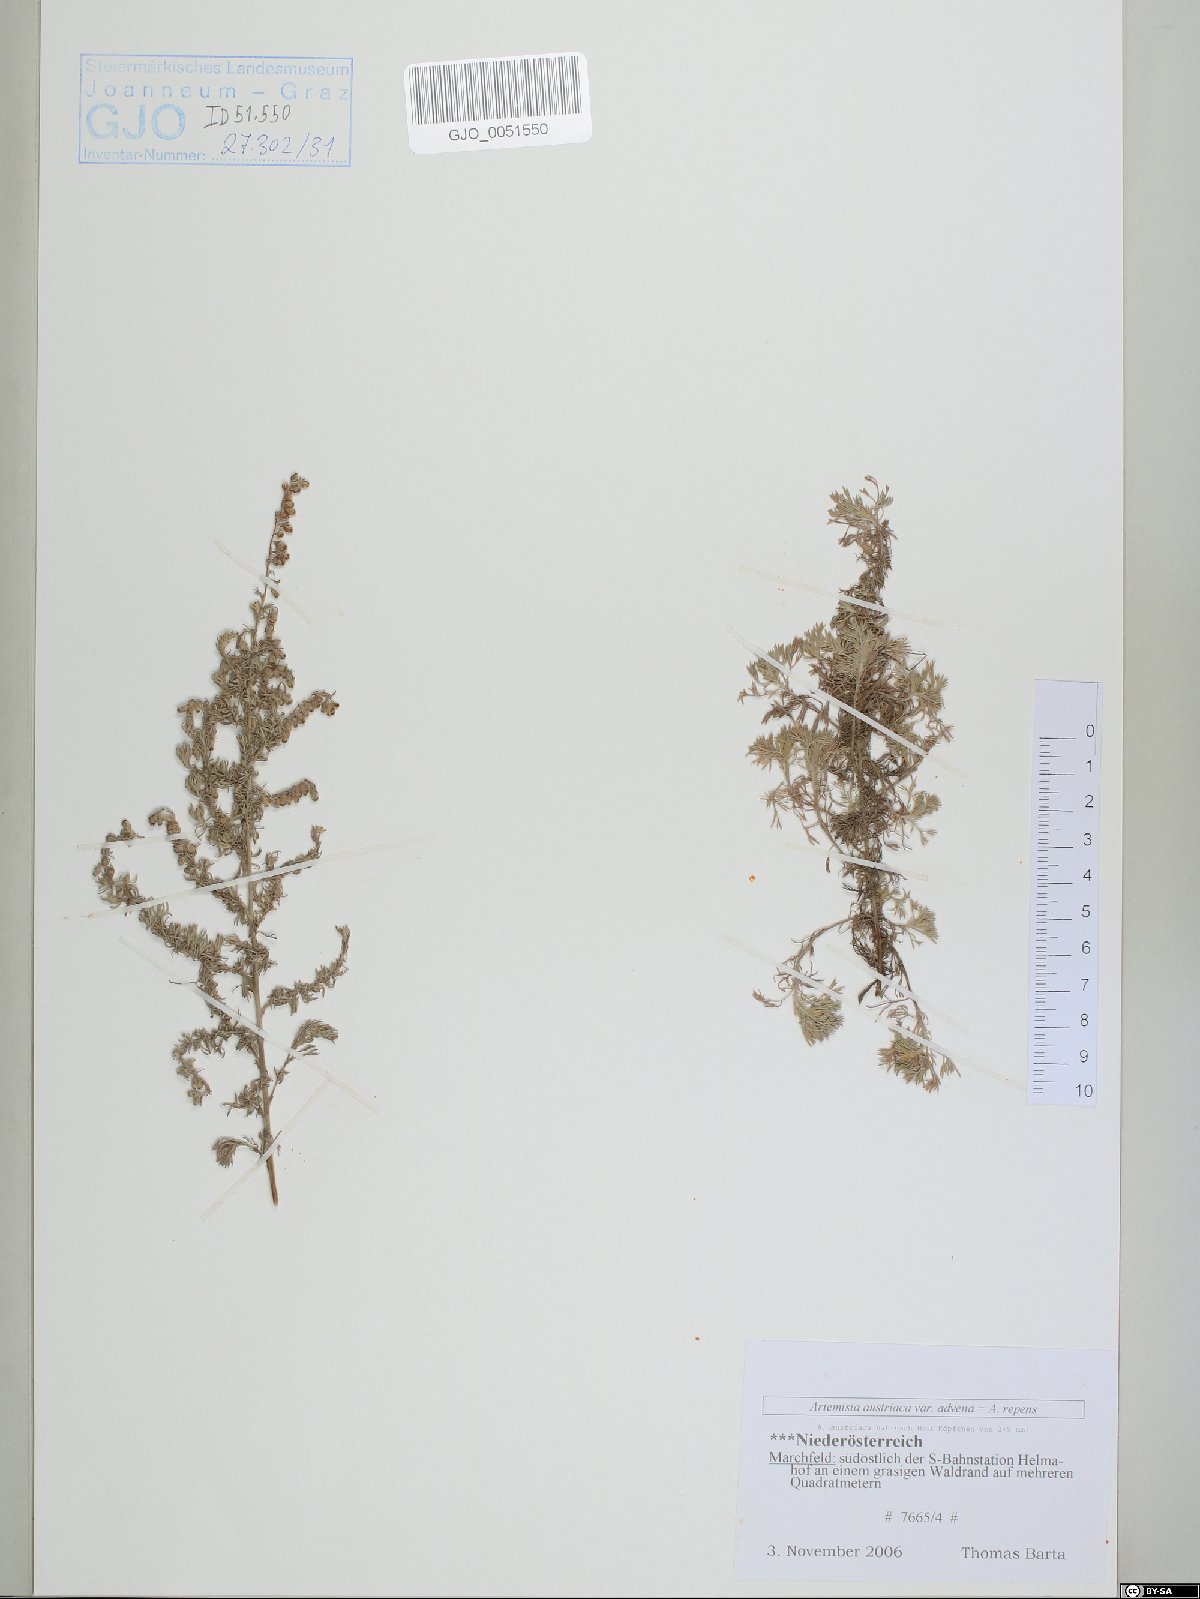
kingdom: Plantae
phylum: Tracheophyta
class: Magnoliopsida
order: Asterales
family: Asteraceae
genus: Artemisia
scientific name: Artemisia repens
